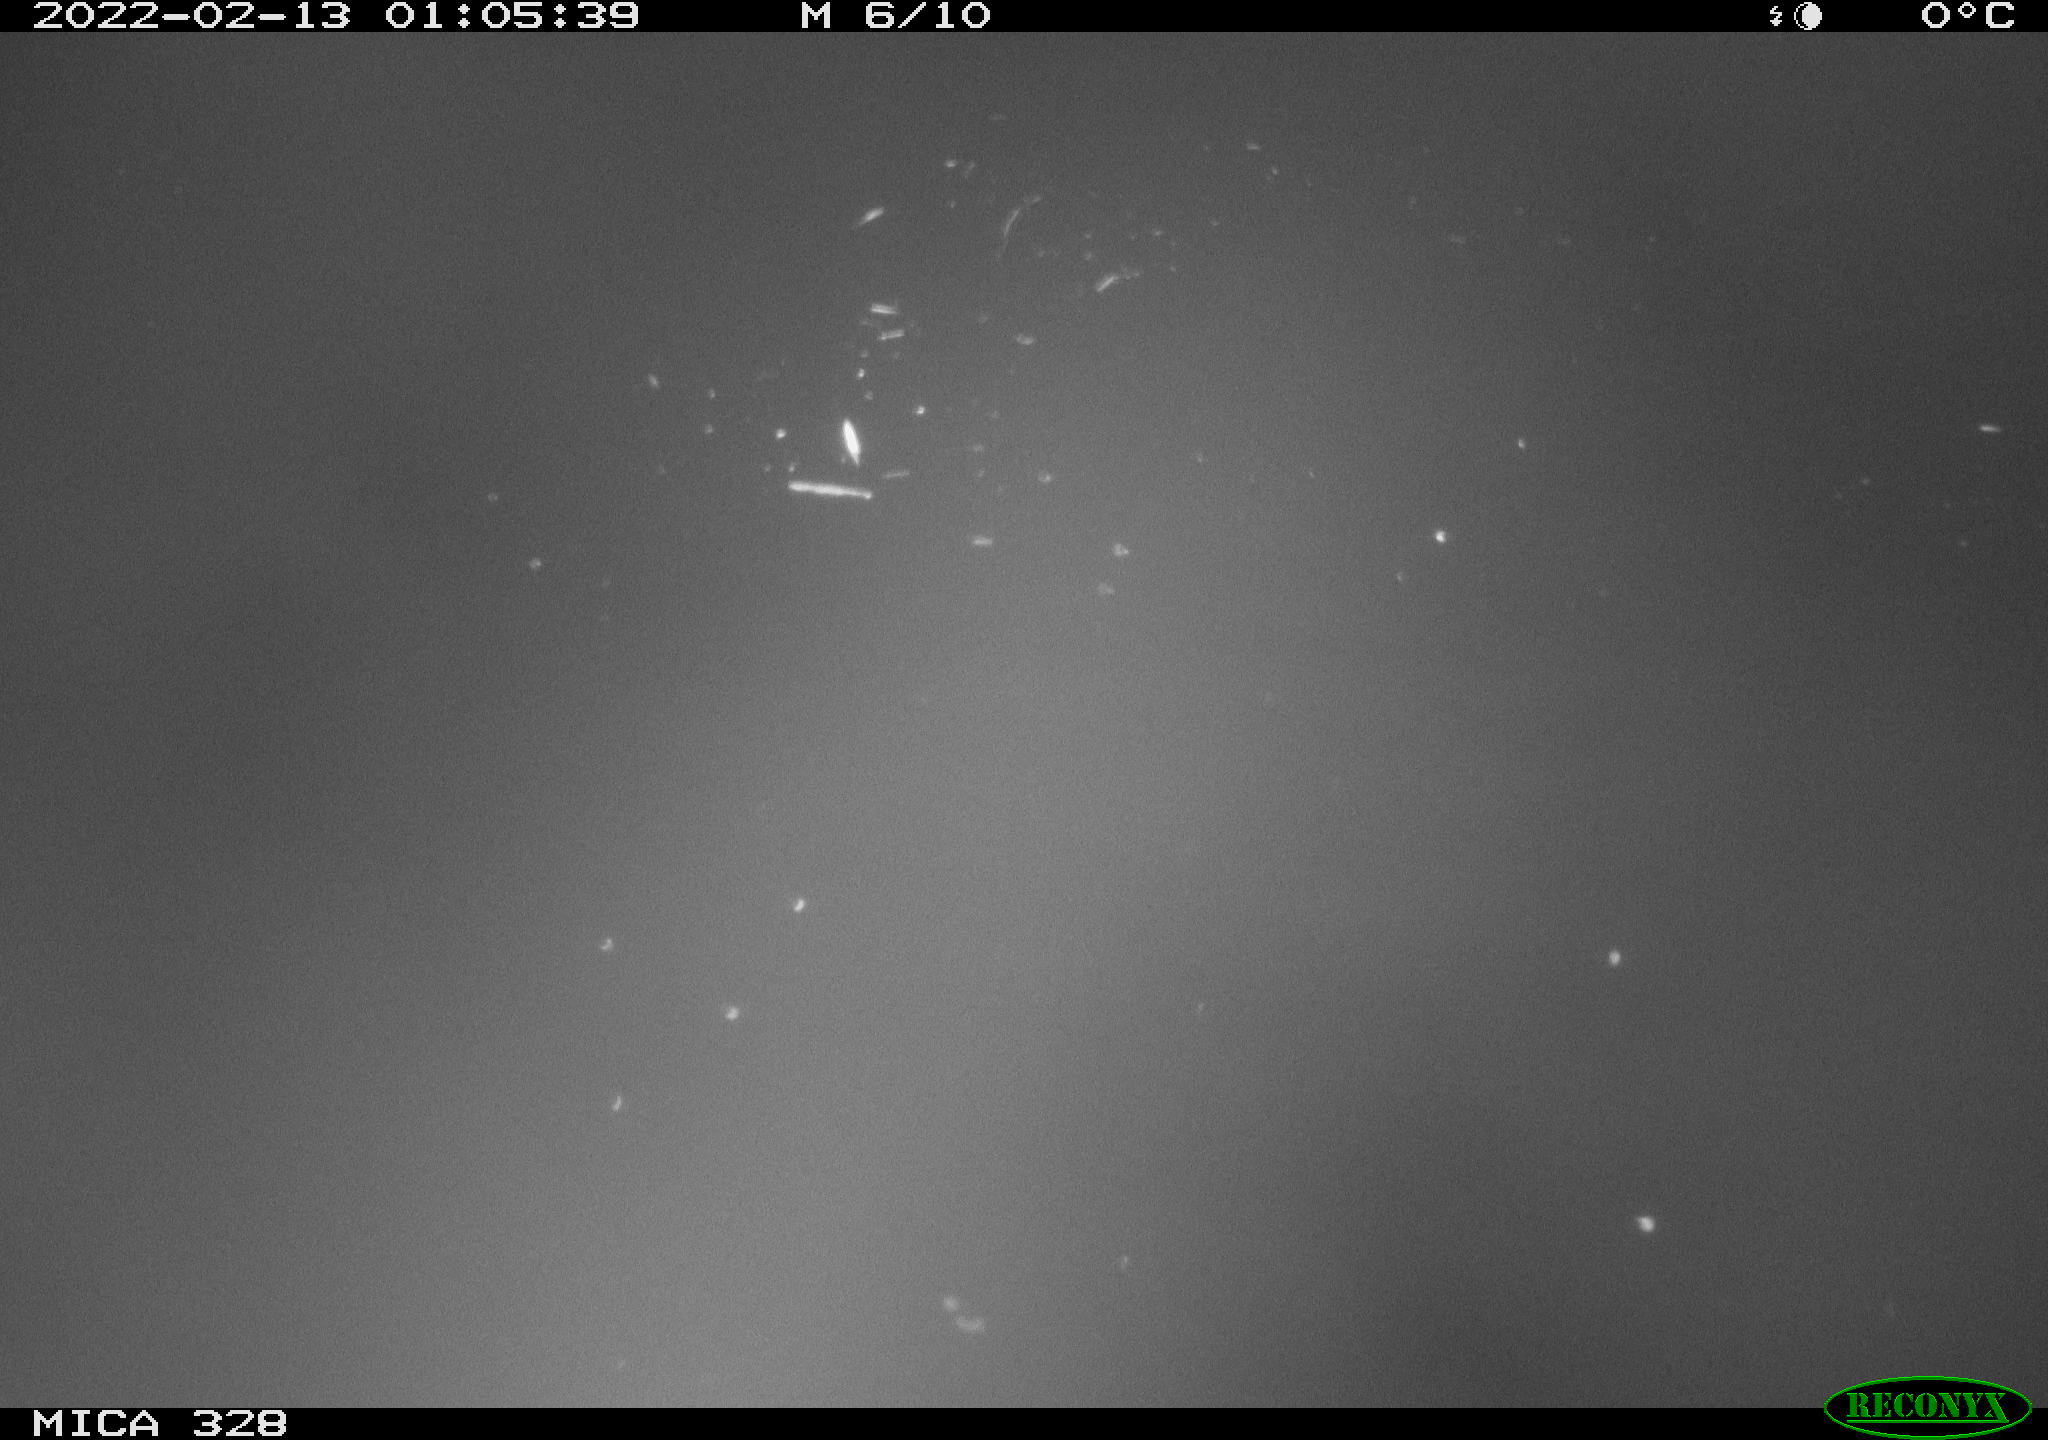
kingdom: Animalia
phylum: Chordata
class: Aves
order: Anseriformes
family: Anatidae
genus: Anas
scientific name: Anas platyrhynchos
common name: Mallard
